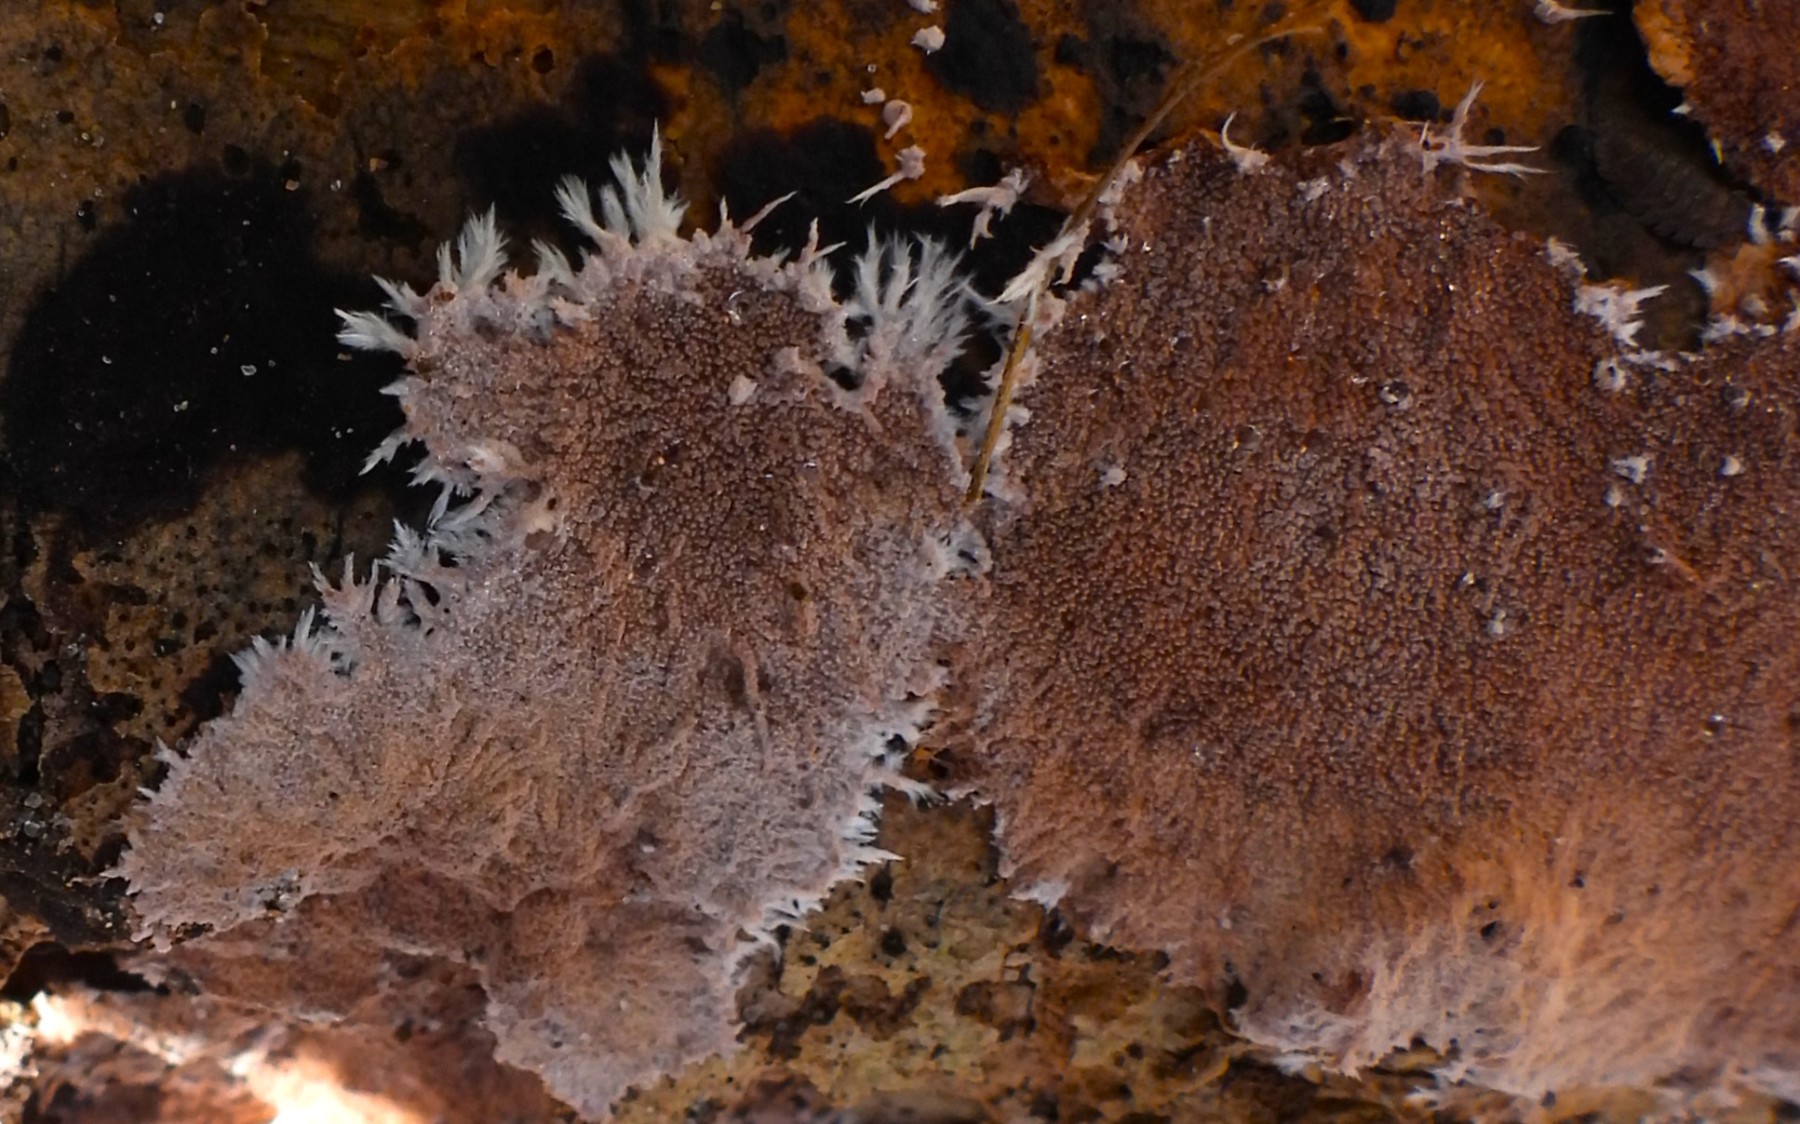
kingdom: Fungi
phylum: Basidiomycota
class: Agaricomycetes
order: Polyporales
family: Steccherinaceae
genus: Steccherinum
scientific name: Steccherinum fimbriatum
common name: trådet skønpig
